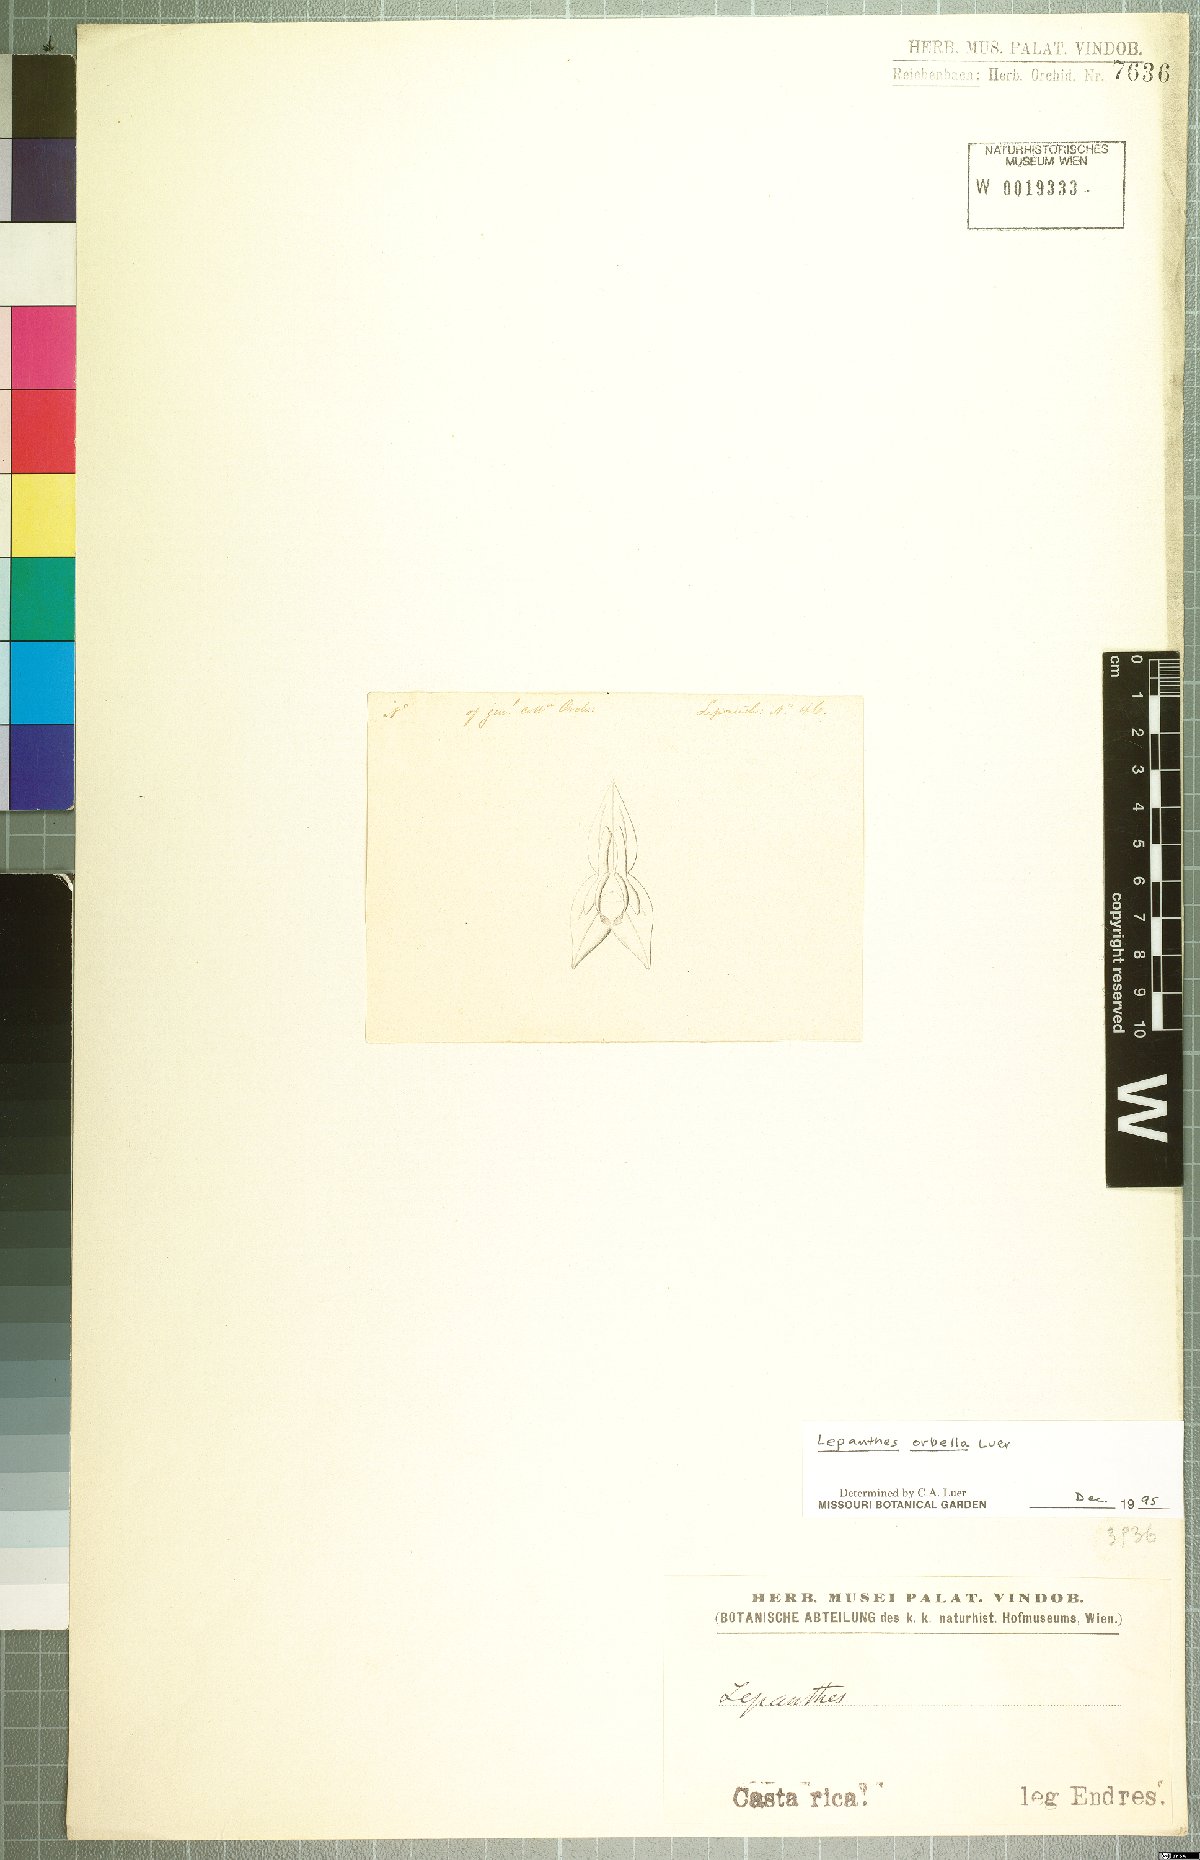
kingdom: Plantae
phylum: Tracheophyta
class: Liliopsida
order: Asparagales
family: Orchidaceae
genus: Lepanthes
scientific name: Lepanthes orbella
